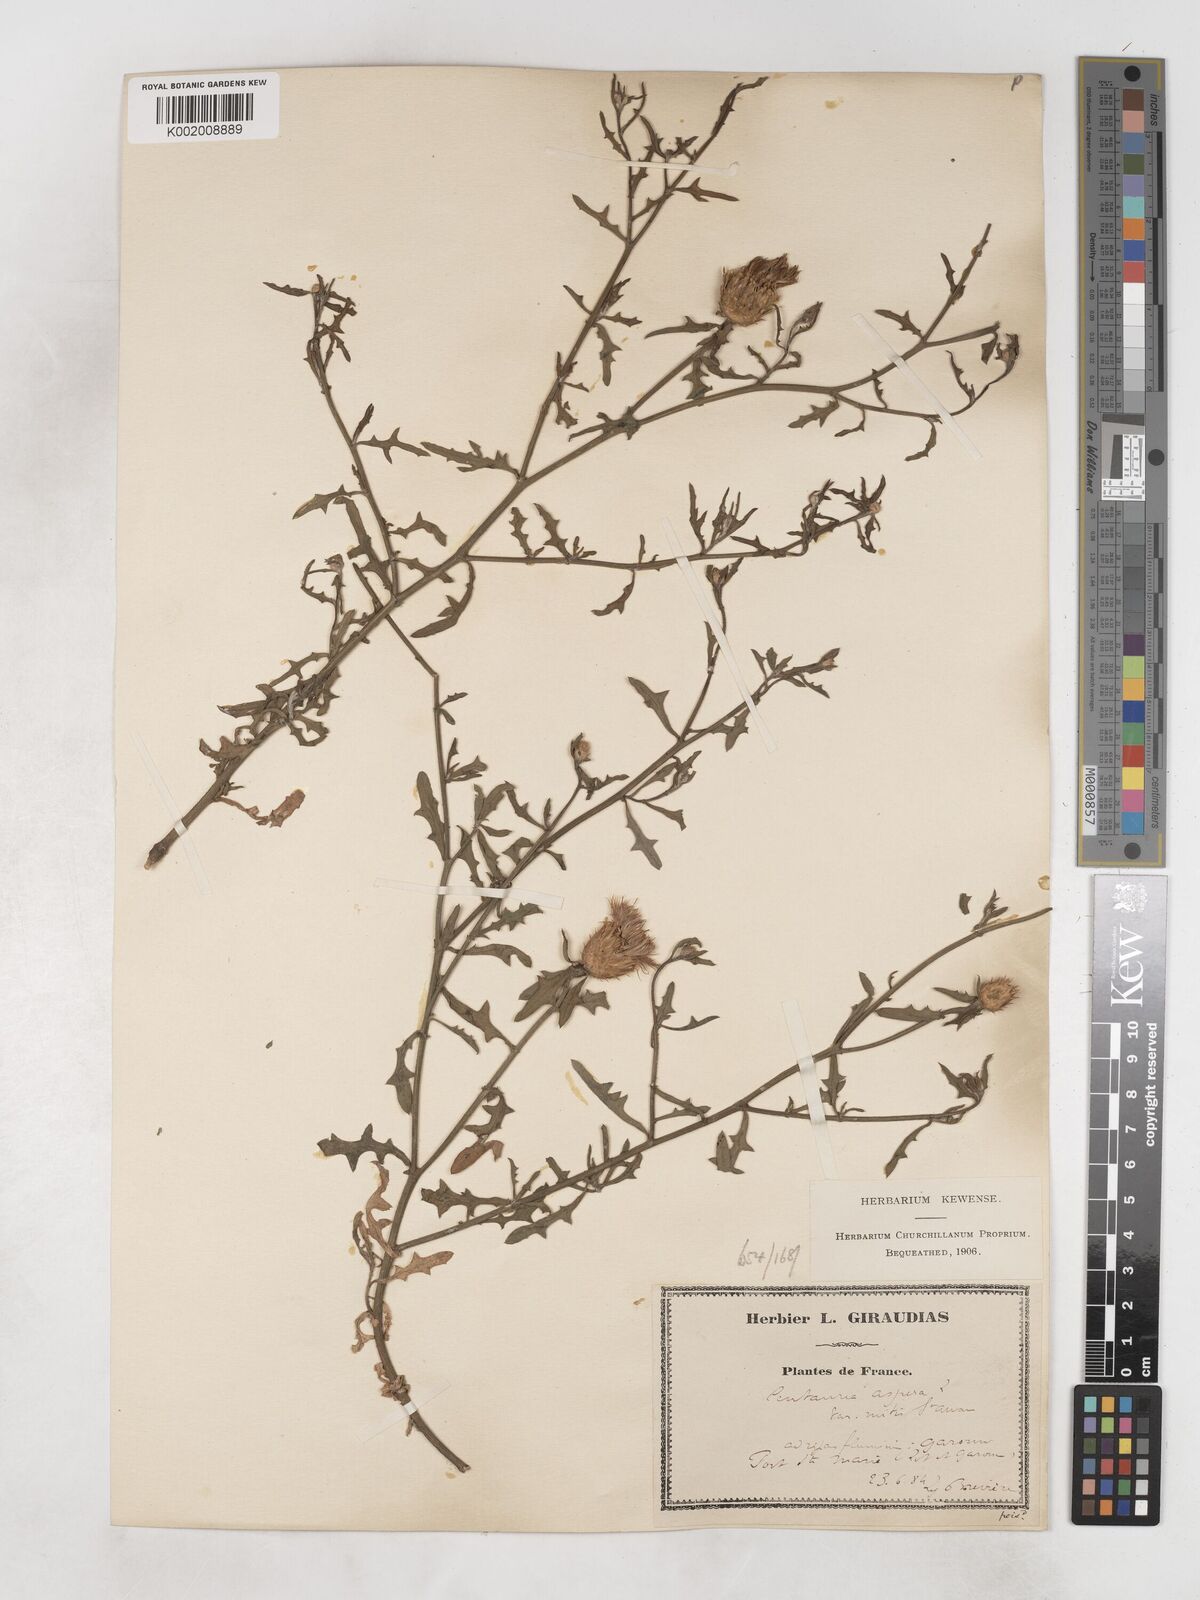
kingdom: Plantae
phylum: Tracheophyta
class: Magnoliopsida
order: Asterales
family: Asteraceae
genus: Centaurea
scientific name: Centaurea aspera
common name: Rough star-thistle
